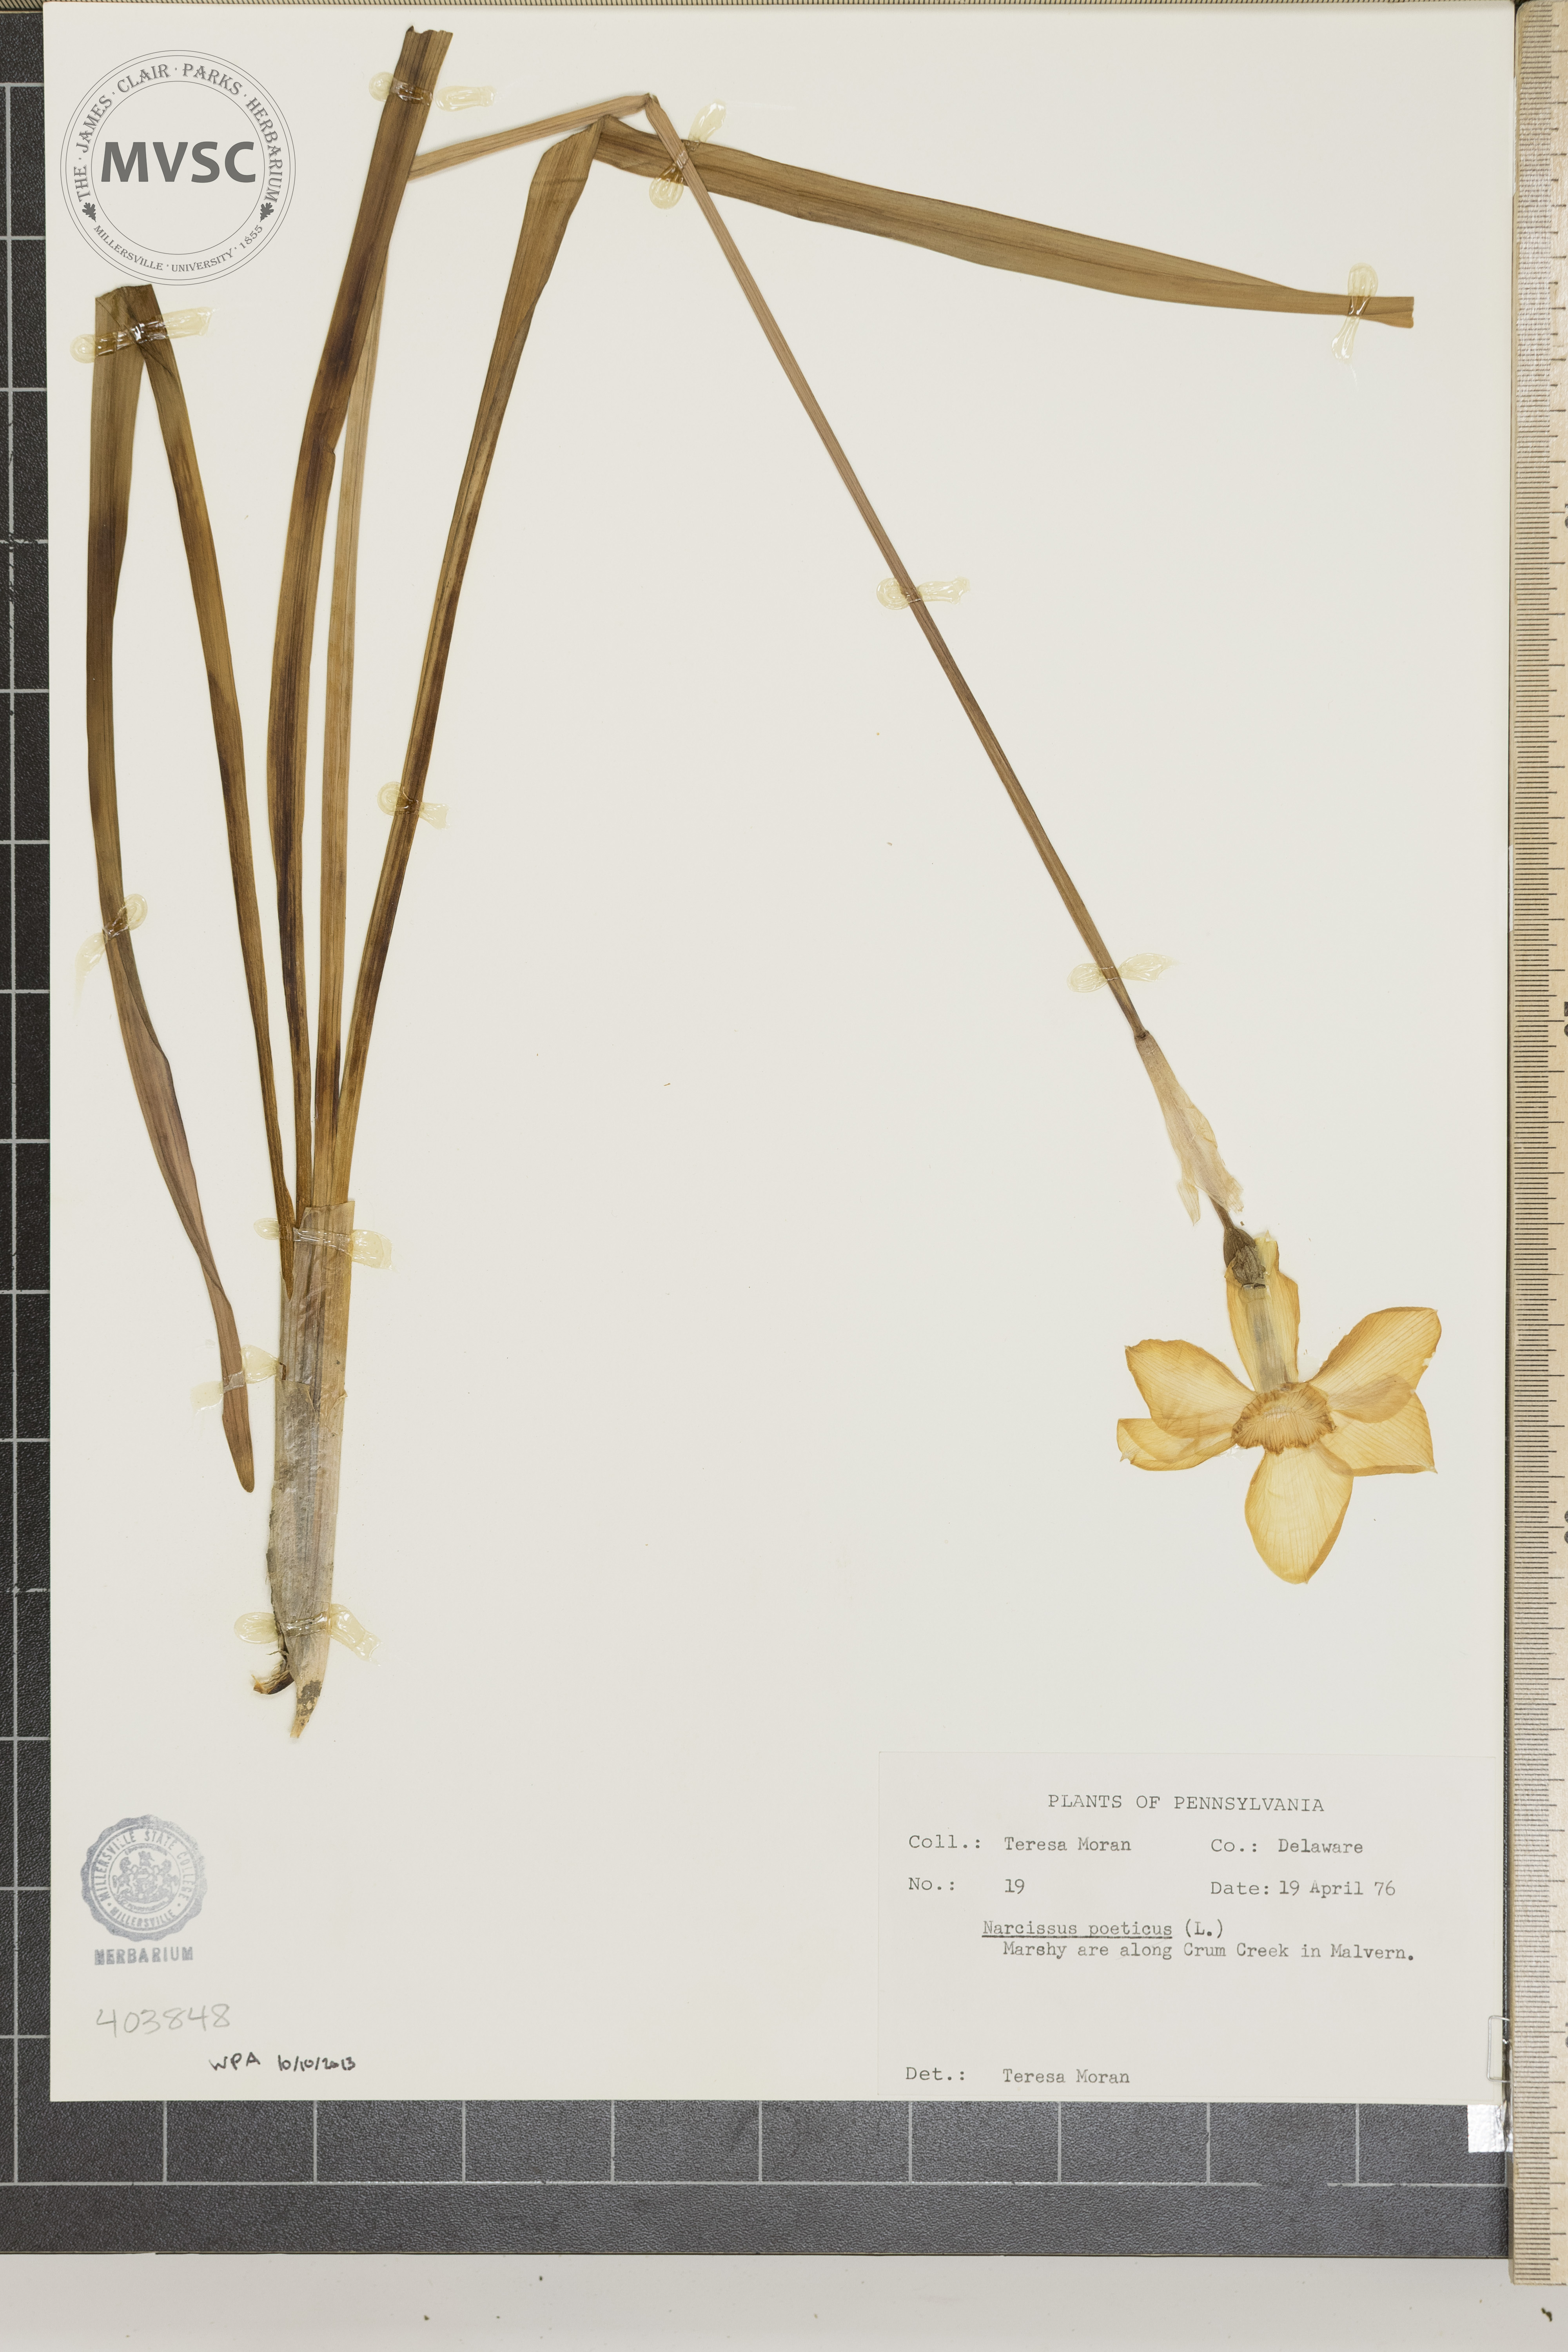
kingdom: Plantae
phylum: Tracheophyta
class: Liliopsida
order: Asparagales
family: Amaryllidaceae
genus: Narcissus
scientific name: Narcissus poeticus
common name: Poet's Narcissus
